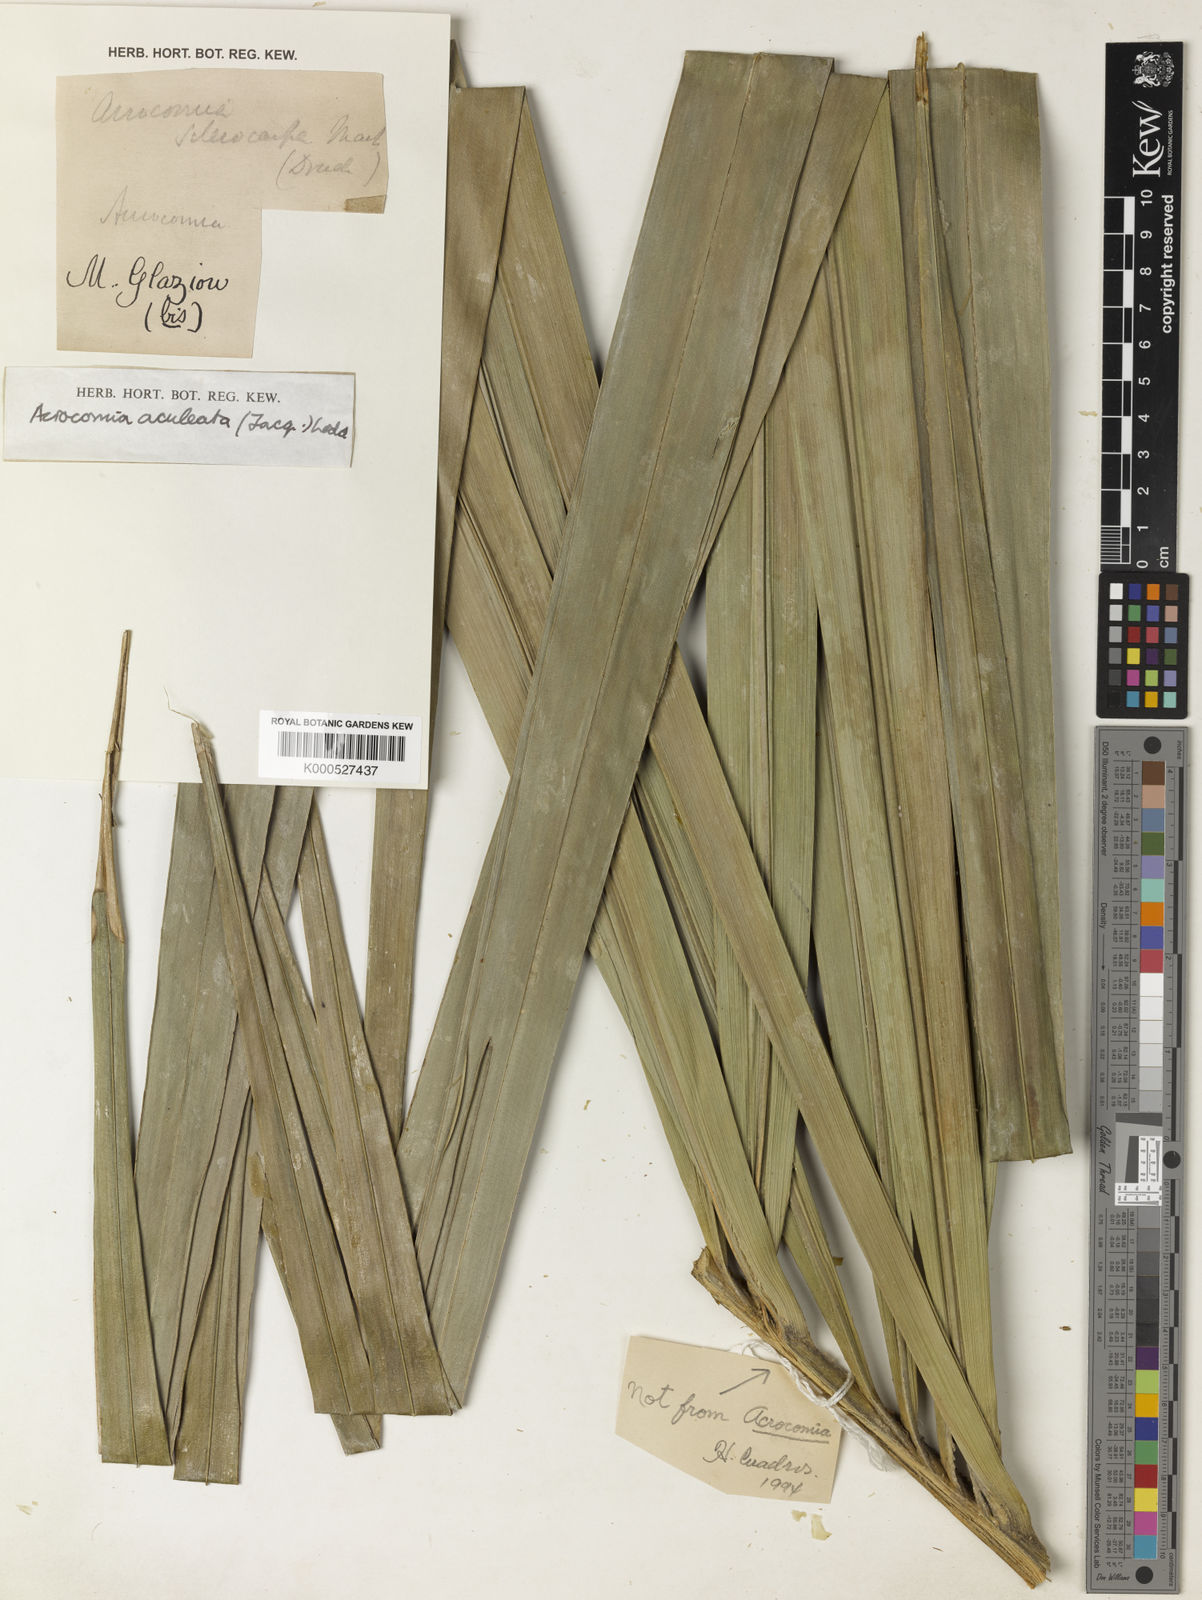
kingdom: Plantae
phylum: Tracheophyta
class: Liliopsida
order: Arecales
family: Arecaceae
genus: Acrocomia
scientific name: Acrocomia aculeata
